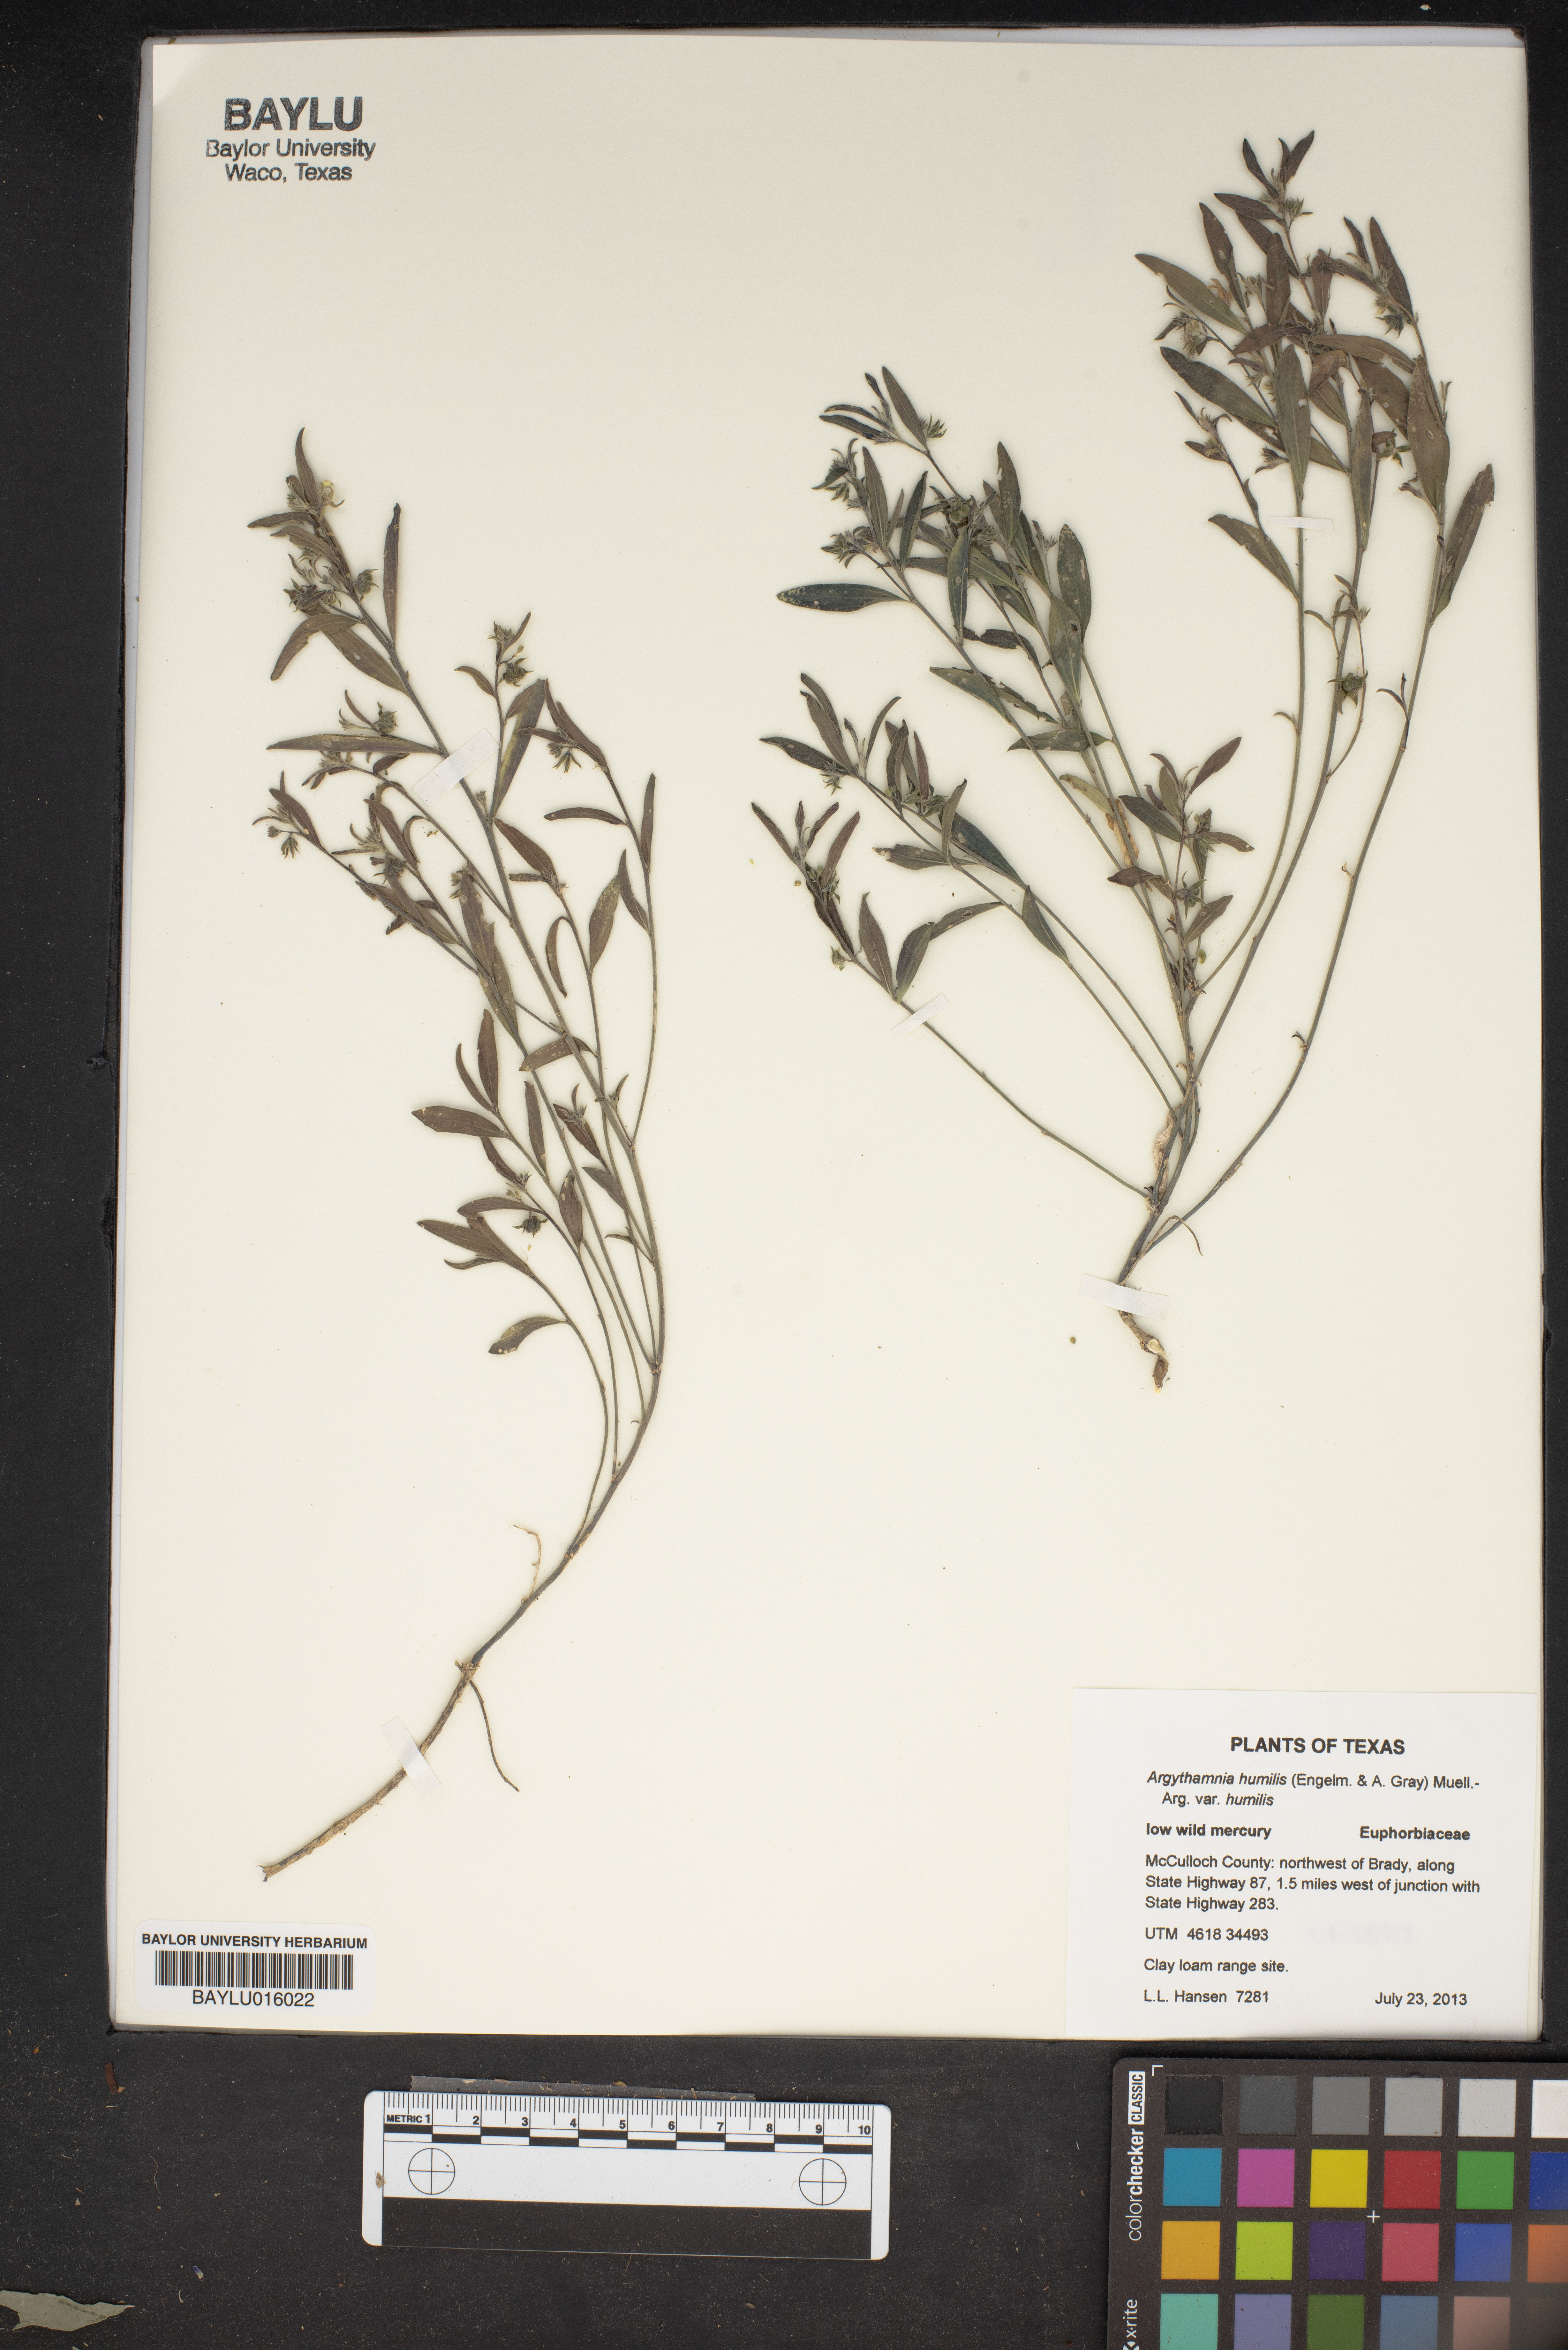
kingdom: Plantae
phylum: Tracheophyta
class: Magnoliopsida
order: Malpighiales
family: Euphorbiaceae
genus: Ditaxis
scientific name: Ditaxis humilis
